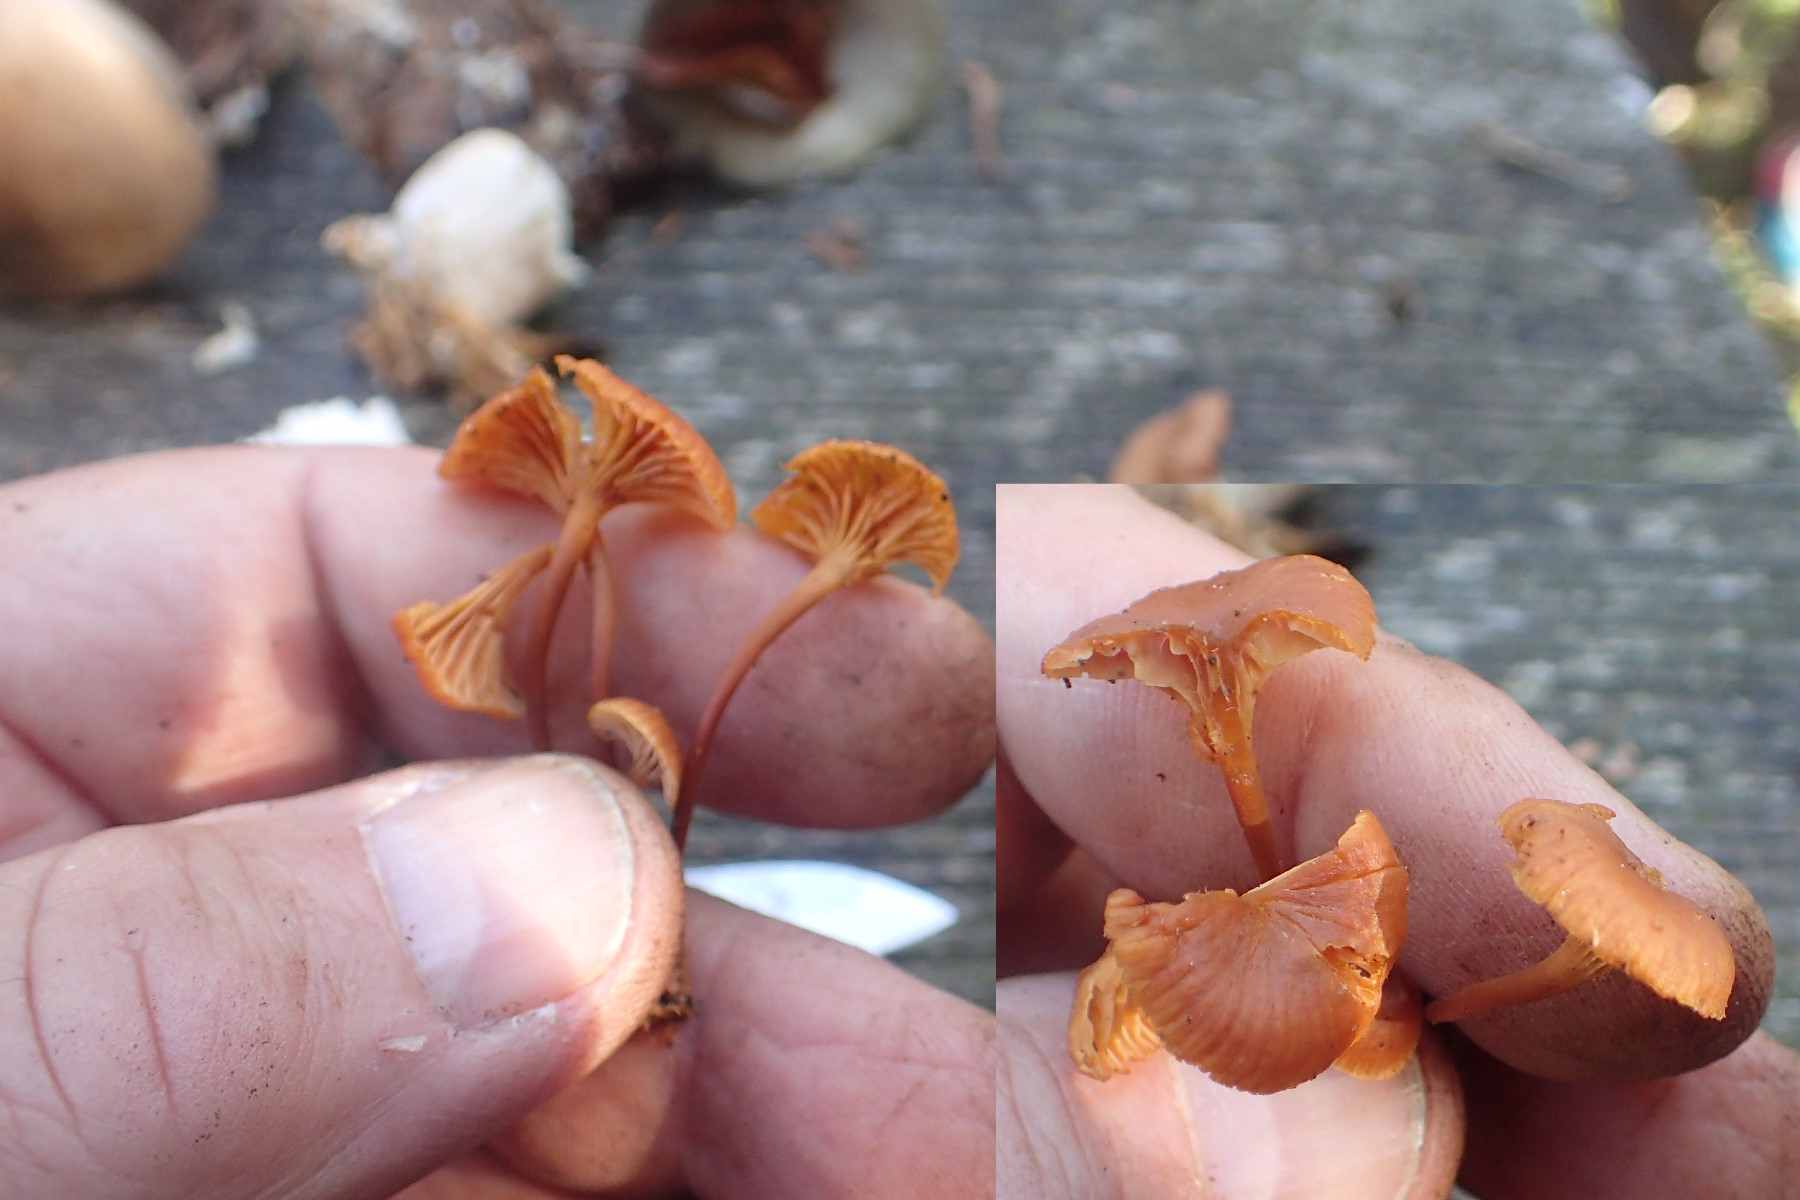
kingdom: Fungi
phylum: Basidiomycota
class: Agaricomycetes
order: Agaricales
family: Mycenaceae
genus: Xeromphalina
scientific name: Xeromphalina
